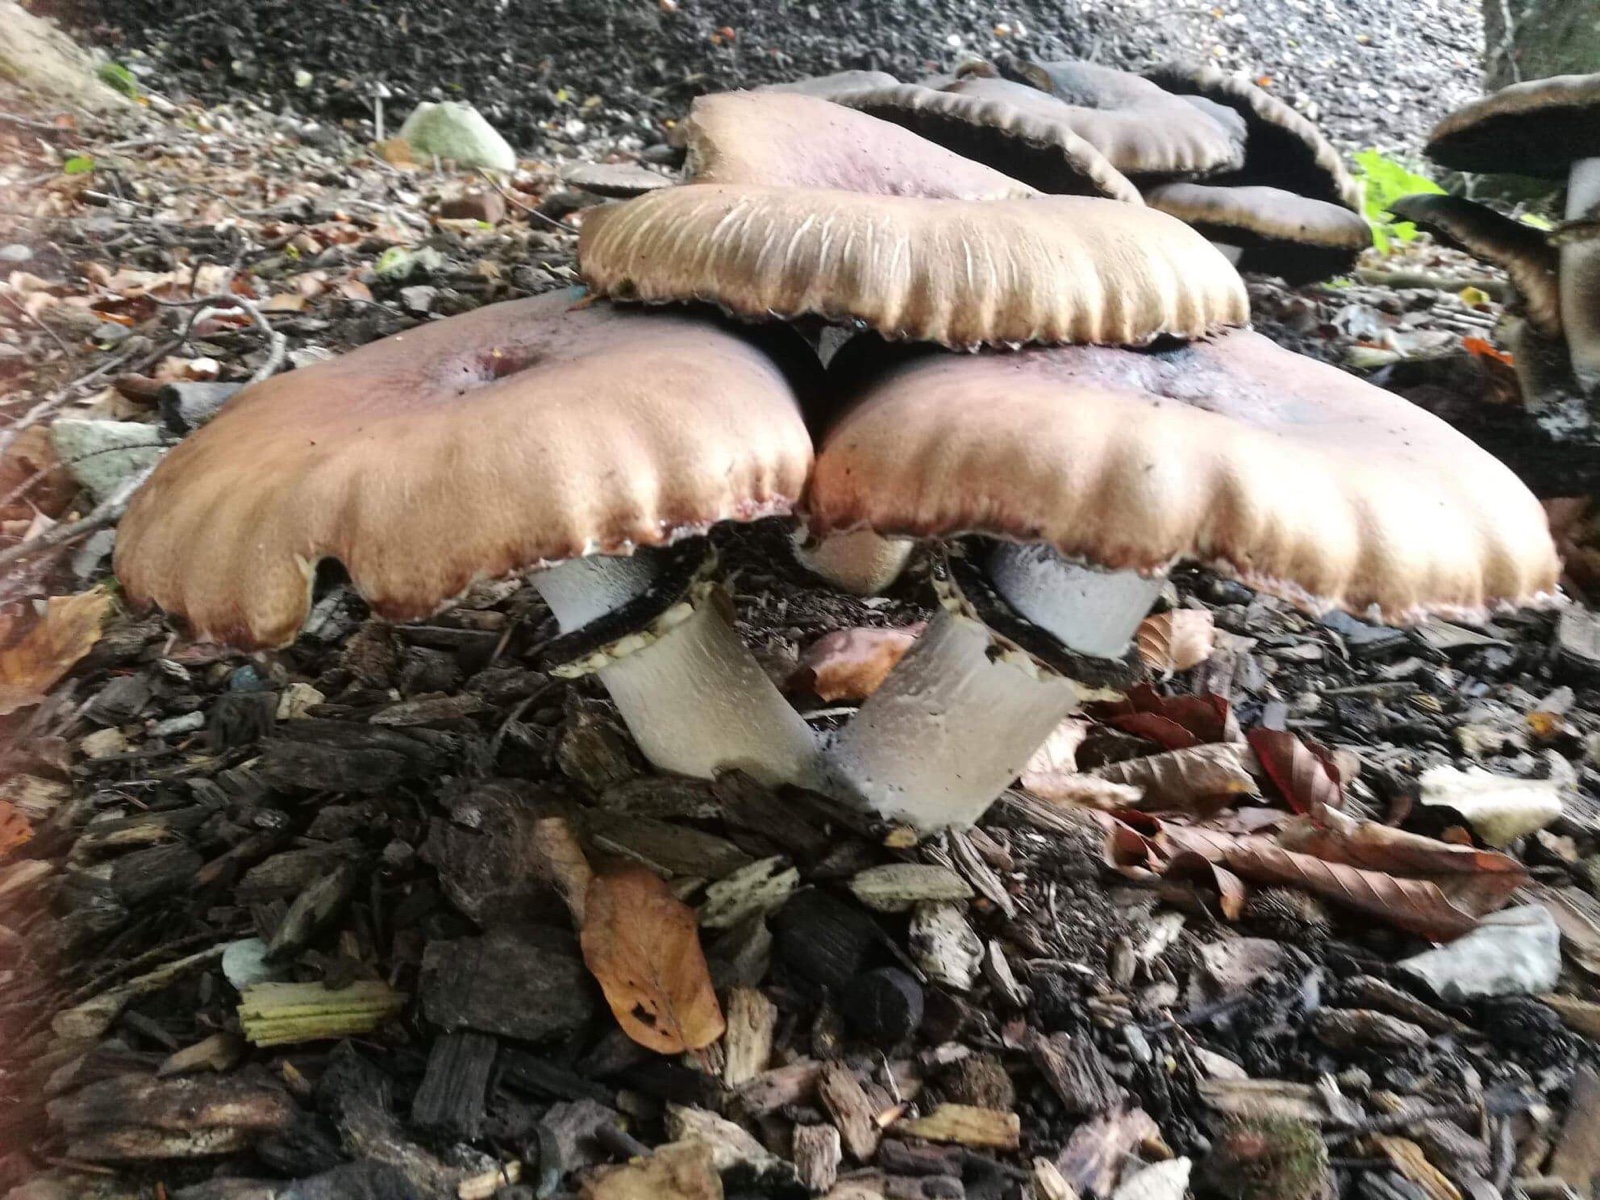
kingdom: Fungi
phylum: Basidiomycota
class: Agaricomycetes
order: Agaricales
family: Strophariaceae
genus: Stropharia
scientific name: Stropharia rugosoannulata
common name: rødbrun bredblad
